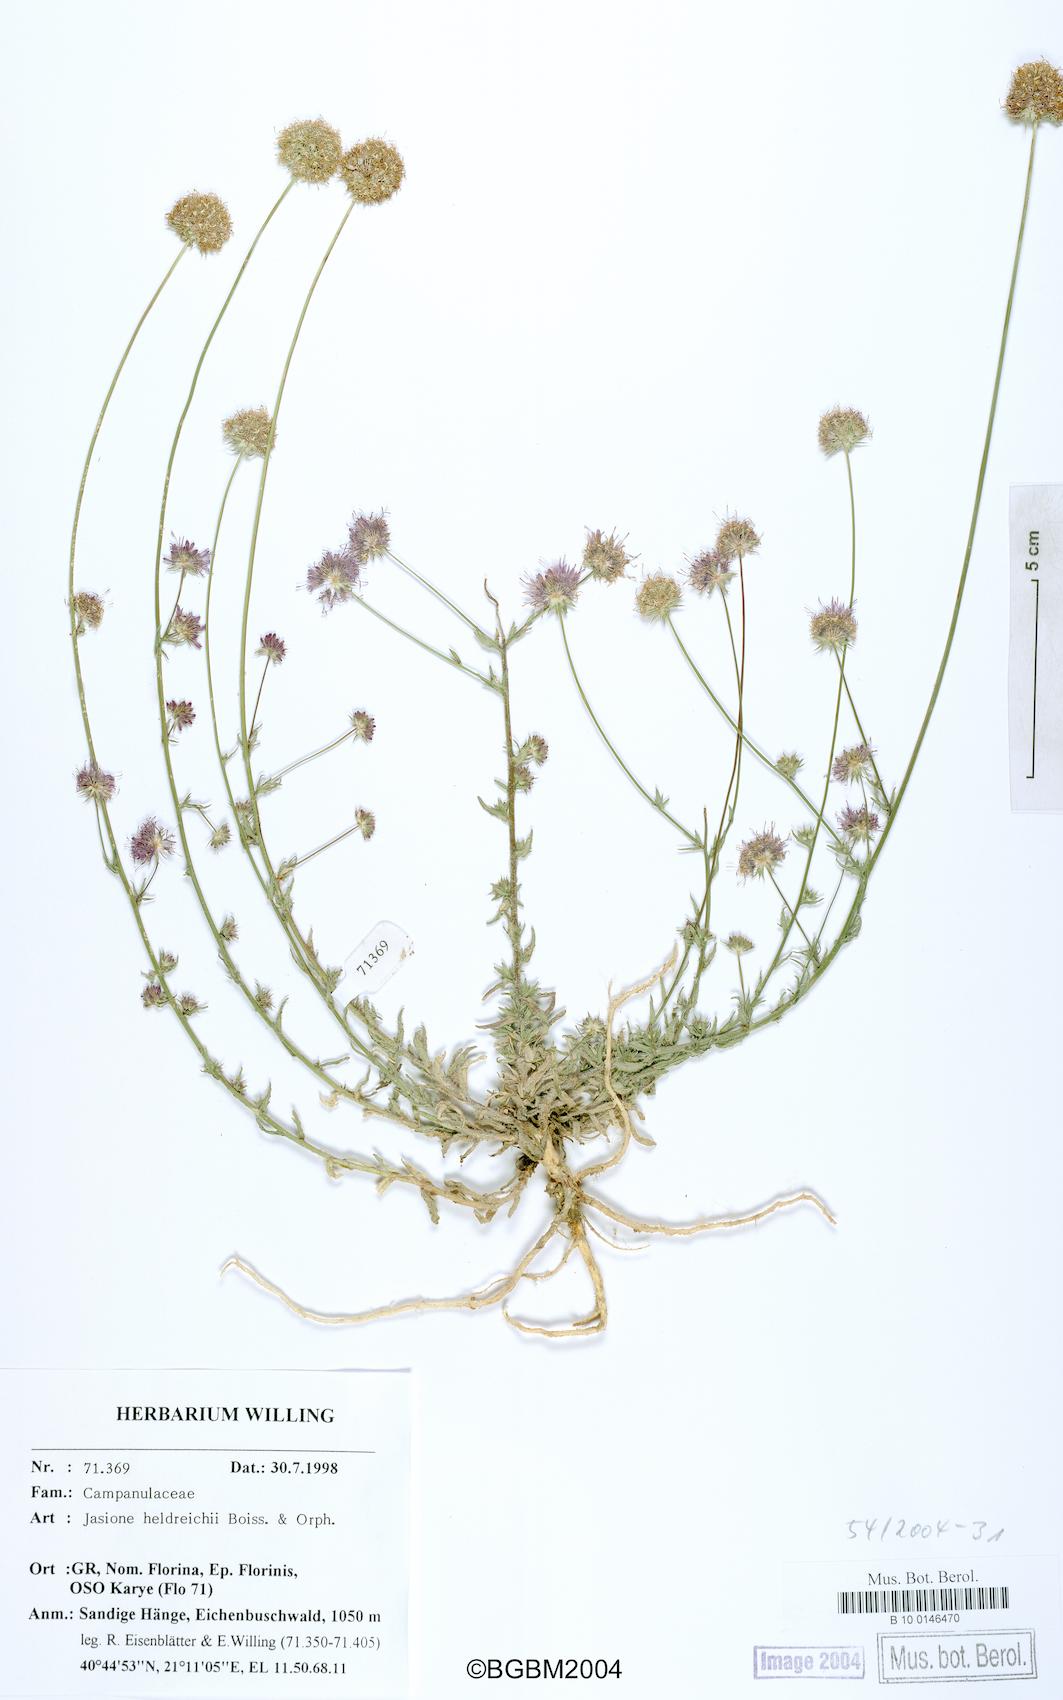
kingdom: Plantae
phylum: Tracheophyta
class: Magnoliopsida
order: Asterales
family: Campanulaceae
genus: Jasione
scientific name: Jasione heldreichii
